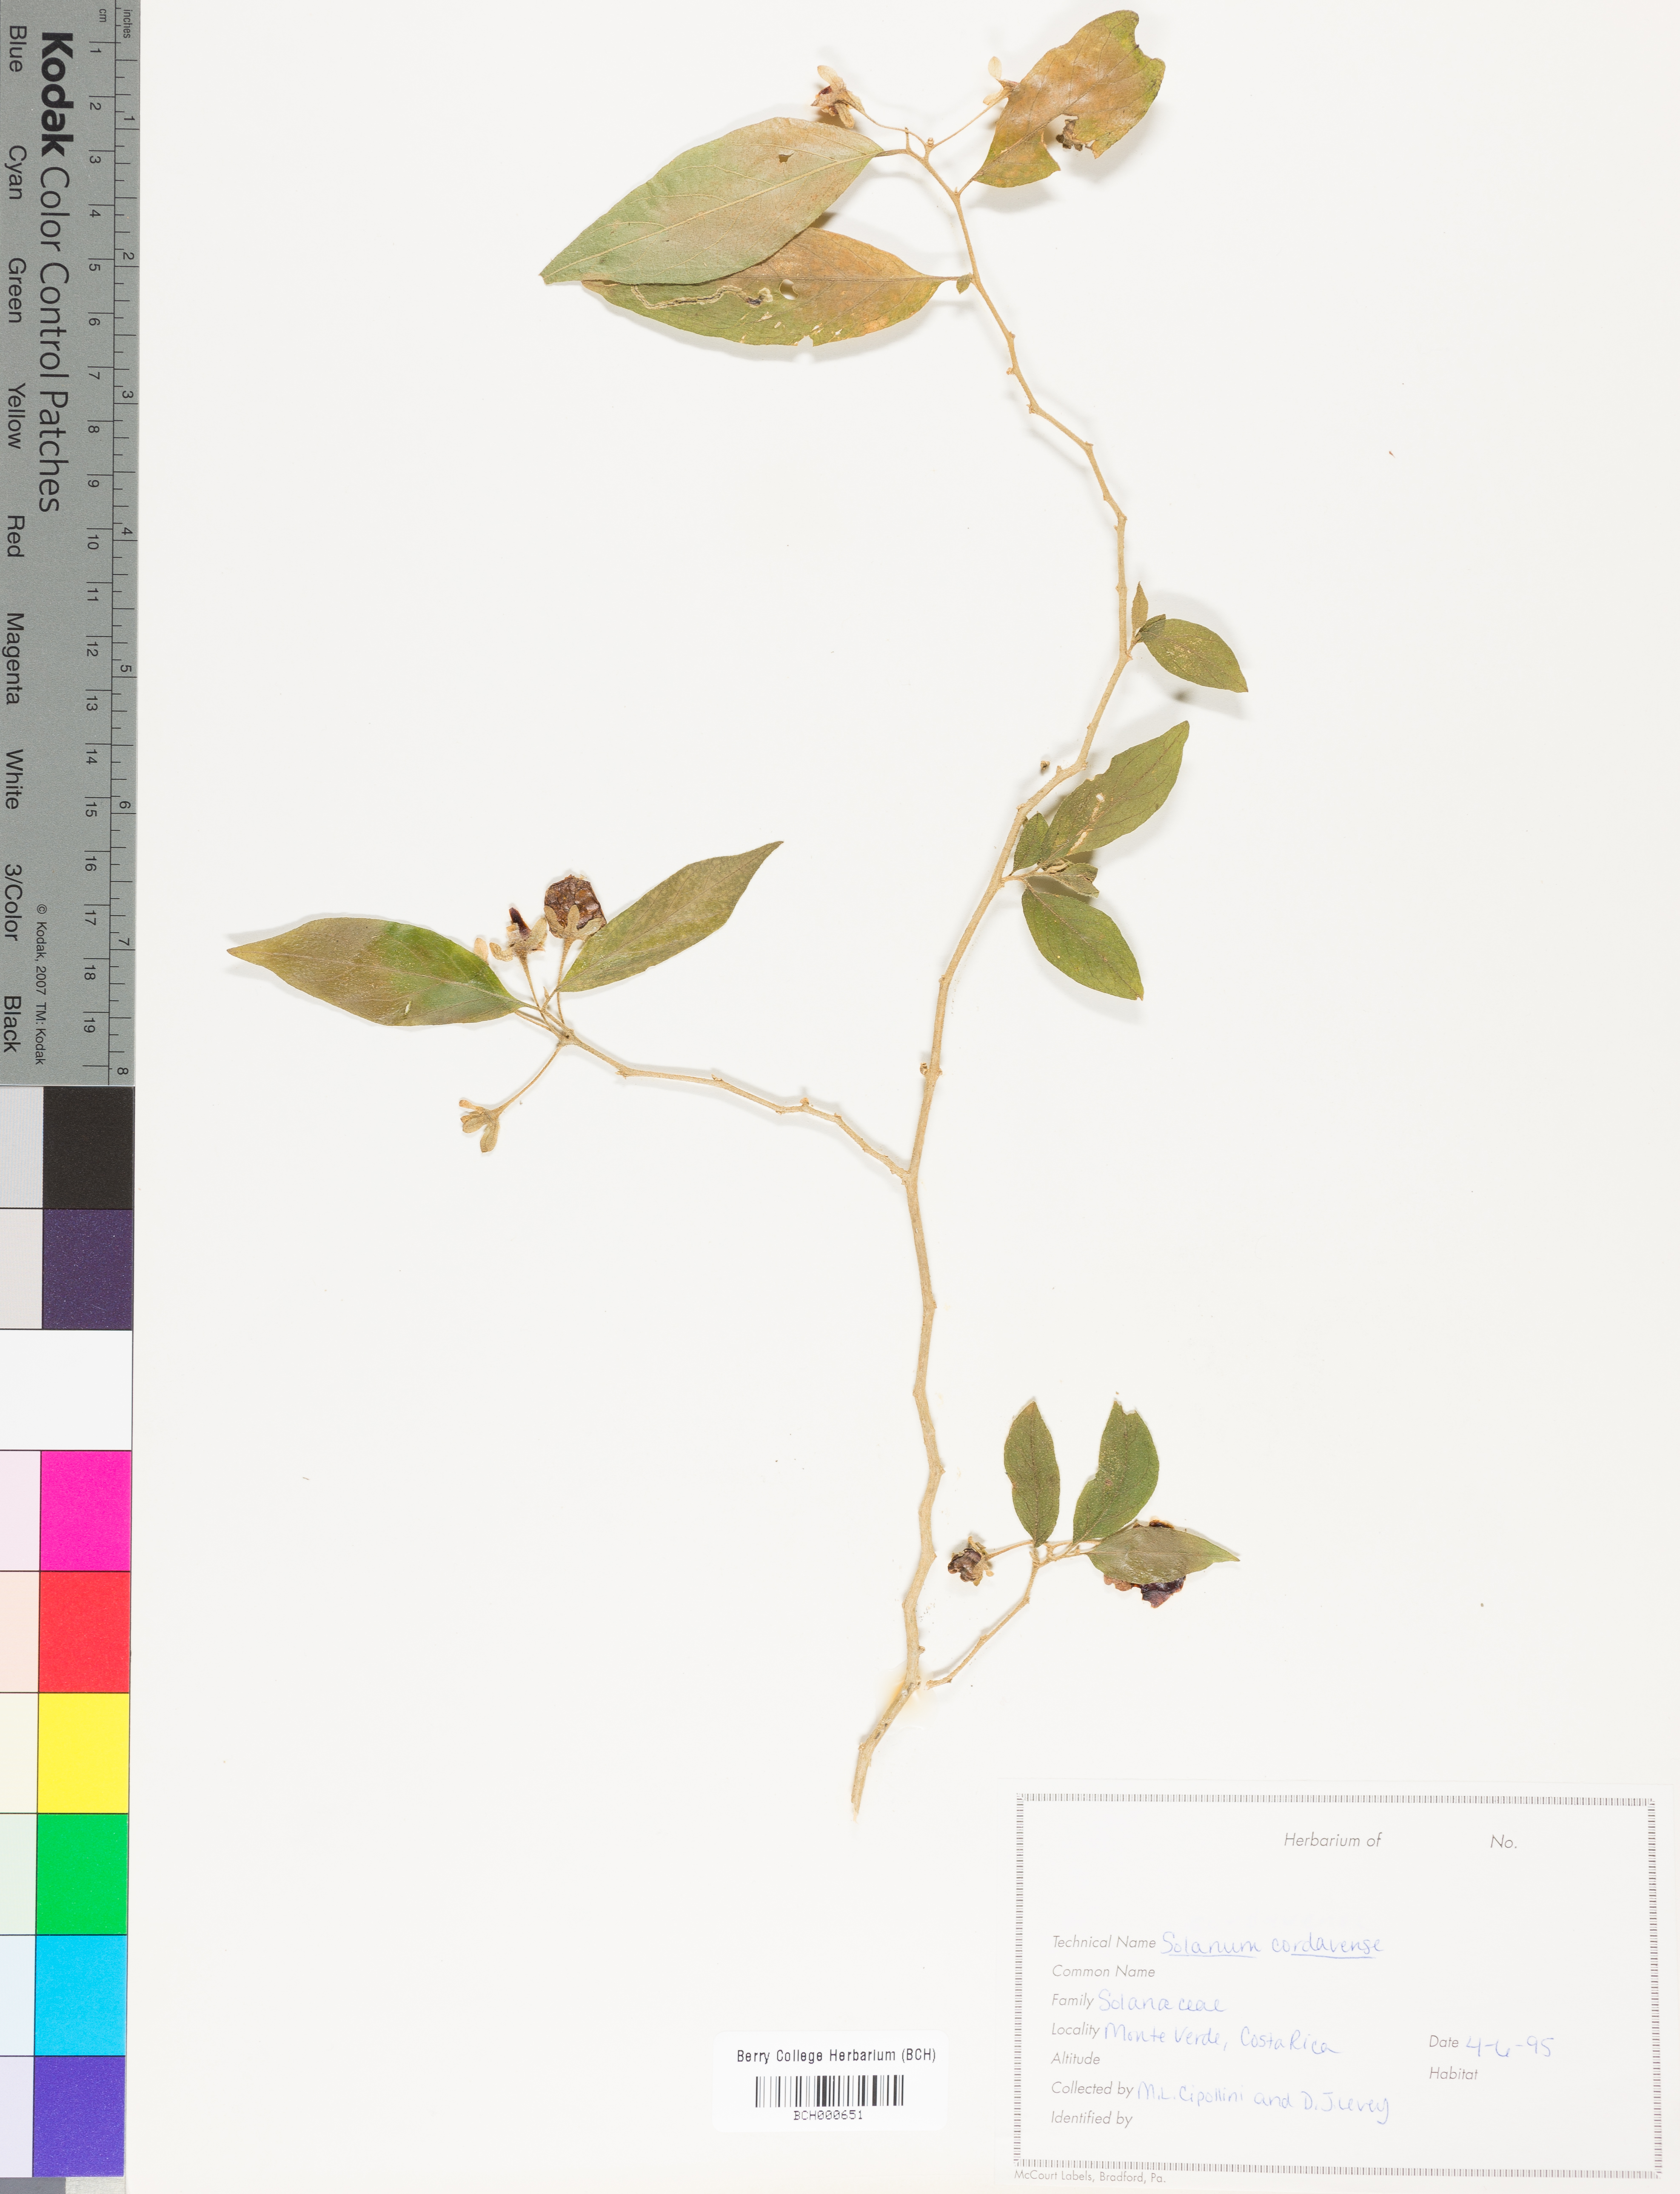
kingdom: Plantae
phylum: Tracheophyta
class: Magnoliopsida
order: Solanales
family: Solanaceae
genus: Solanum
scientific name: Solanum cordovense
